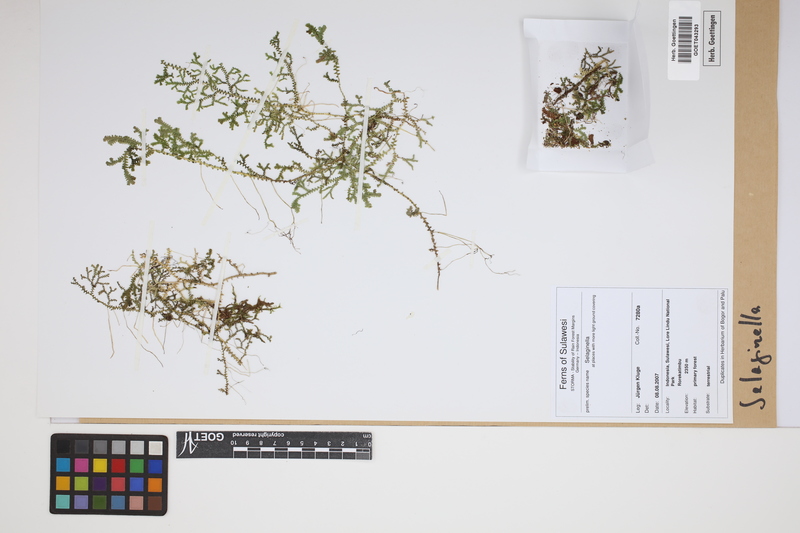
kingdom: Plantae
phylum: Tracheophyta
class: Lycopodiopsida
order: Selaginellales
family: Selaginellaceae
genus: Selaginella
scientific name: Selaginella
